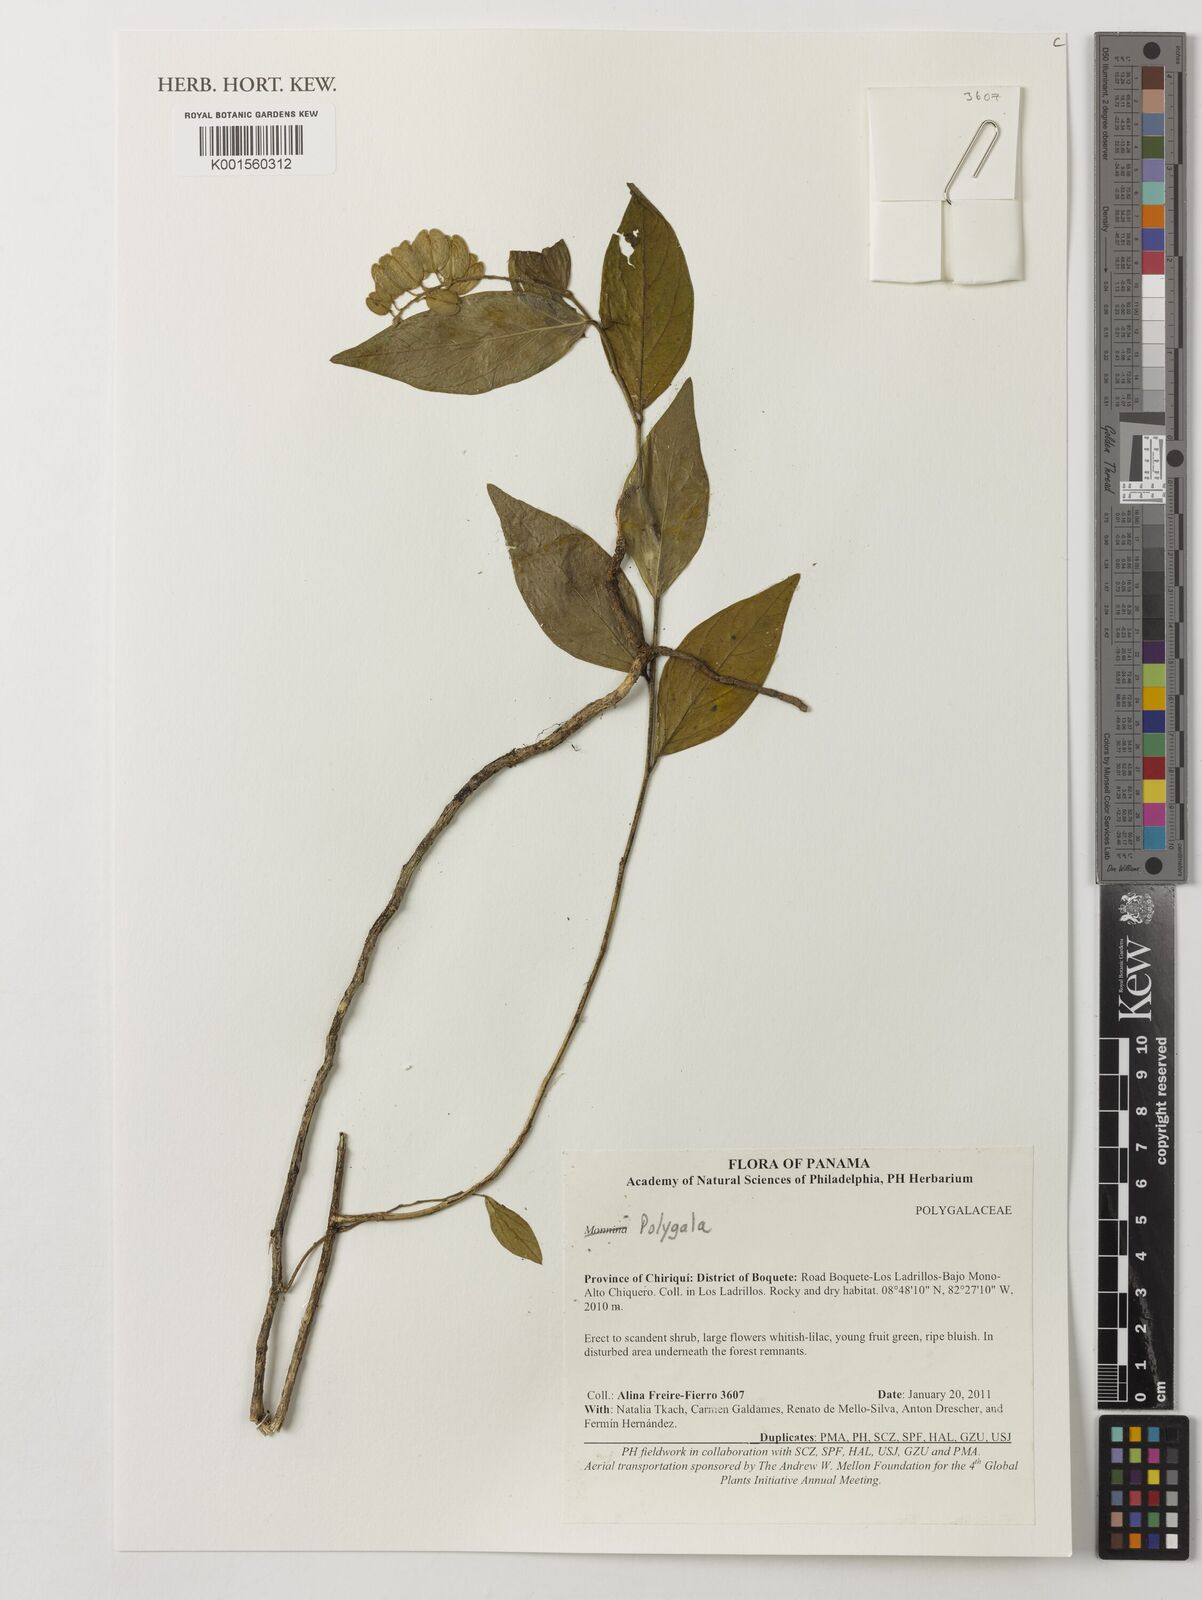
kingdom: Plantae
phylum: Tracheophyta
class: Magnoliopsida
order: Fabales
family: Polygalaceae
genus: Polygala
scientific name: Polygala
